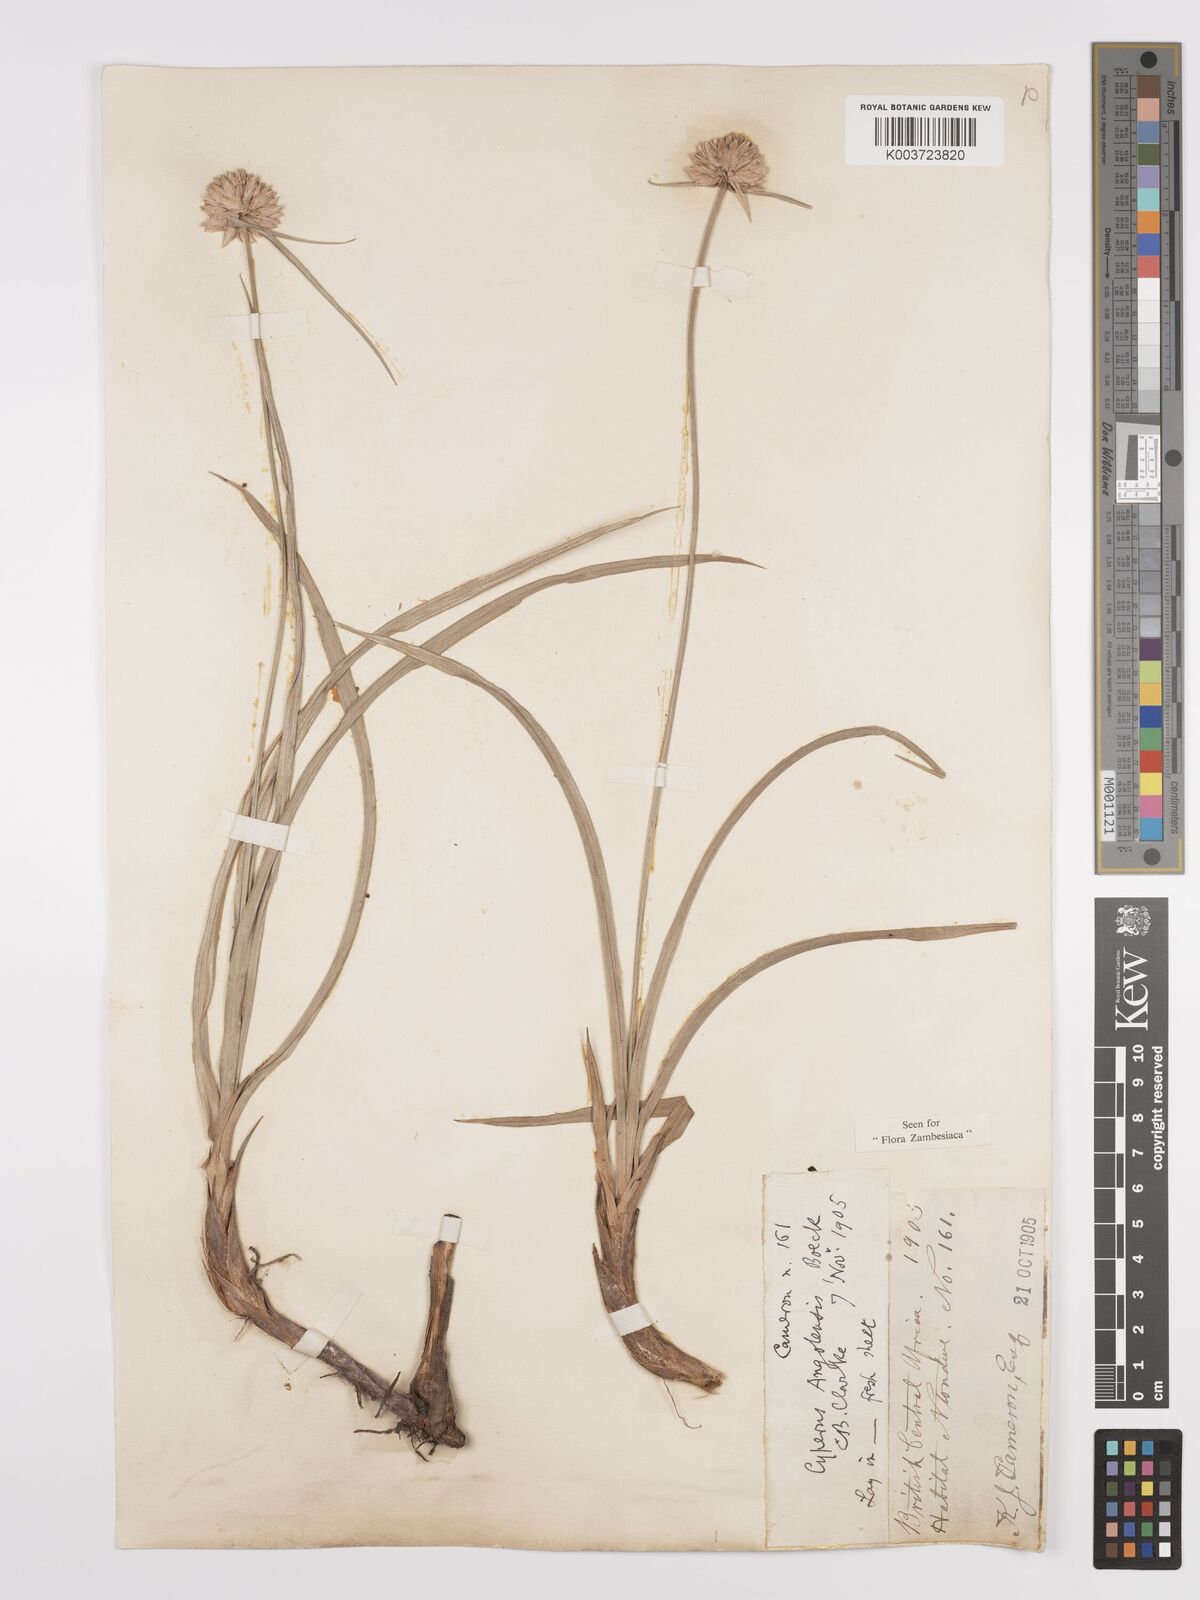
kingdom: Plantae
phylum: Tracheophyta
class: Liliopsida
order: Poales
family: Cyperaceae
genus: Cyperus
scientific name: Cyperus angolensis
